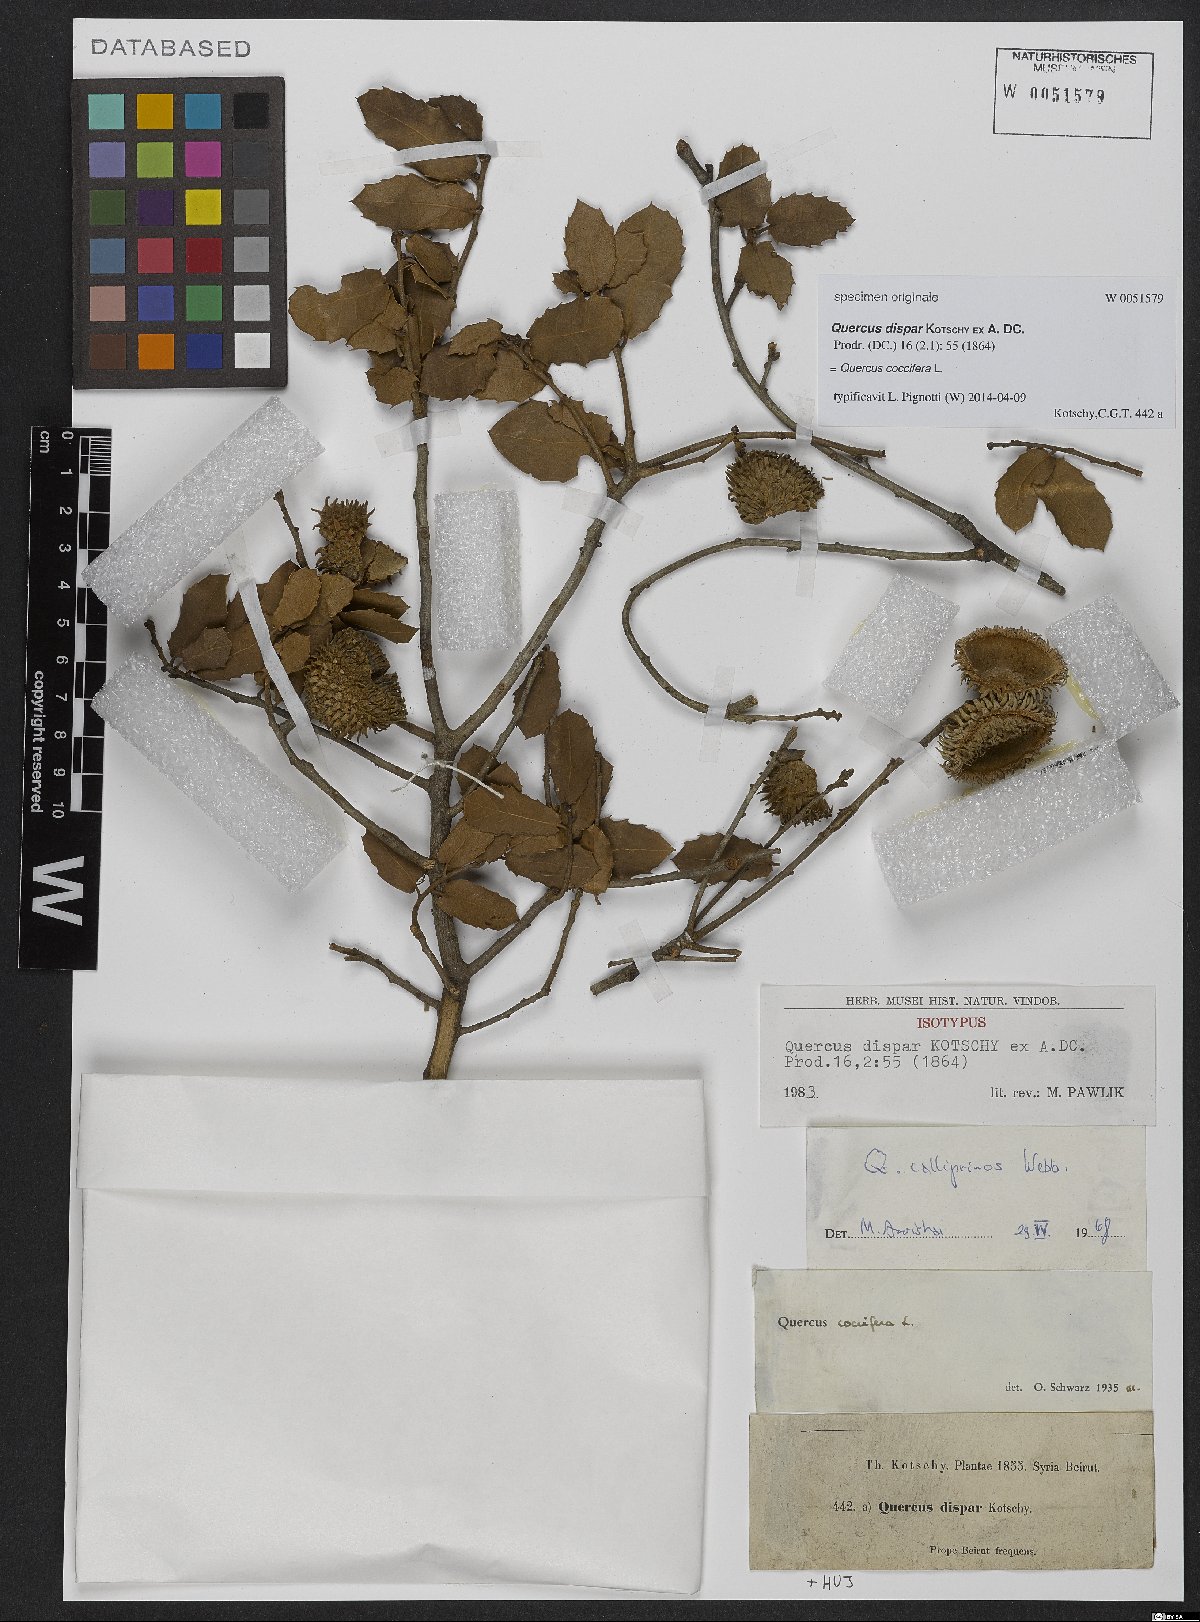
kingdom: Plantae
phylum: Tracheophyta
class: Magnoliopsida
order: Fagales
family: Fagaceae
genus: Quercus
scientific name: Quercus coccifera
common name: Kermes oak
